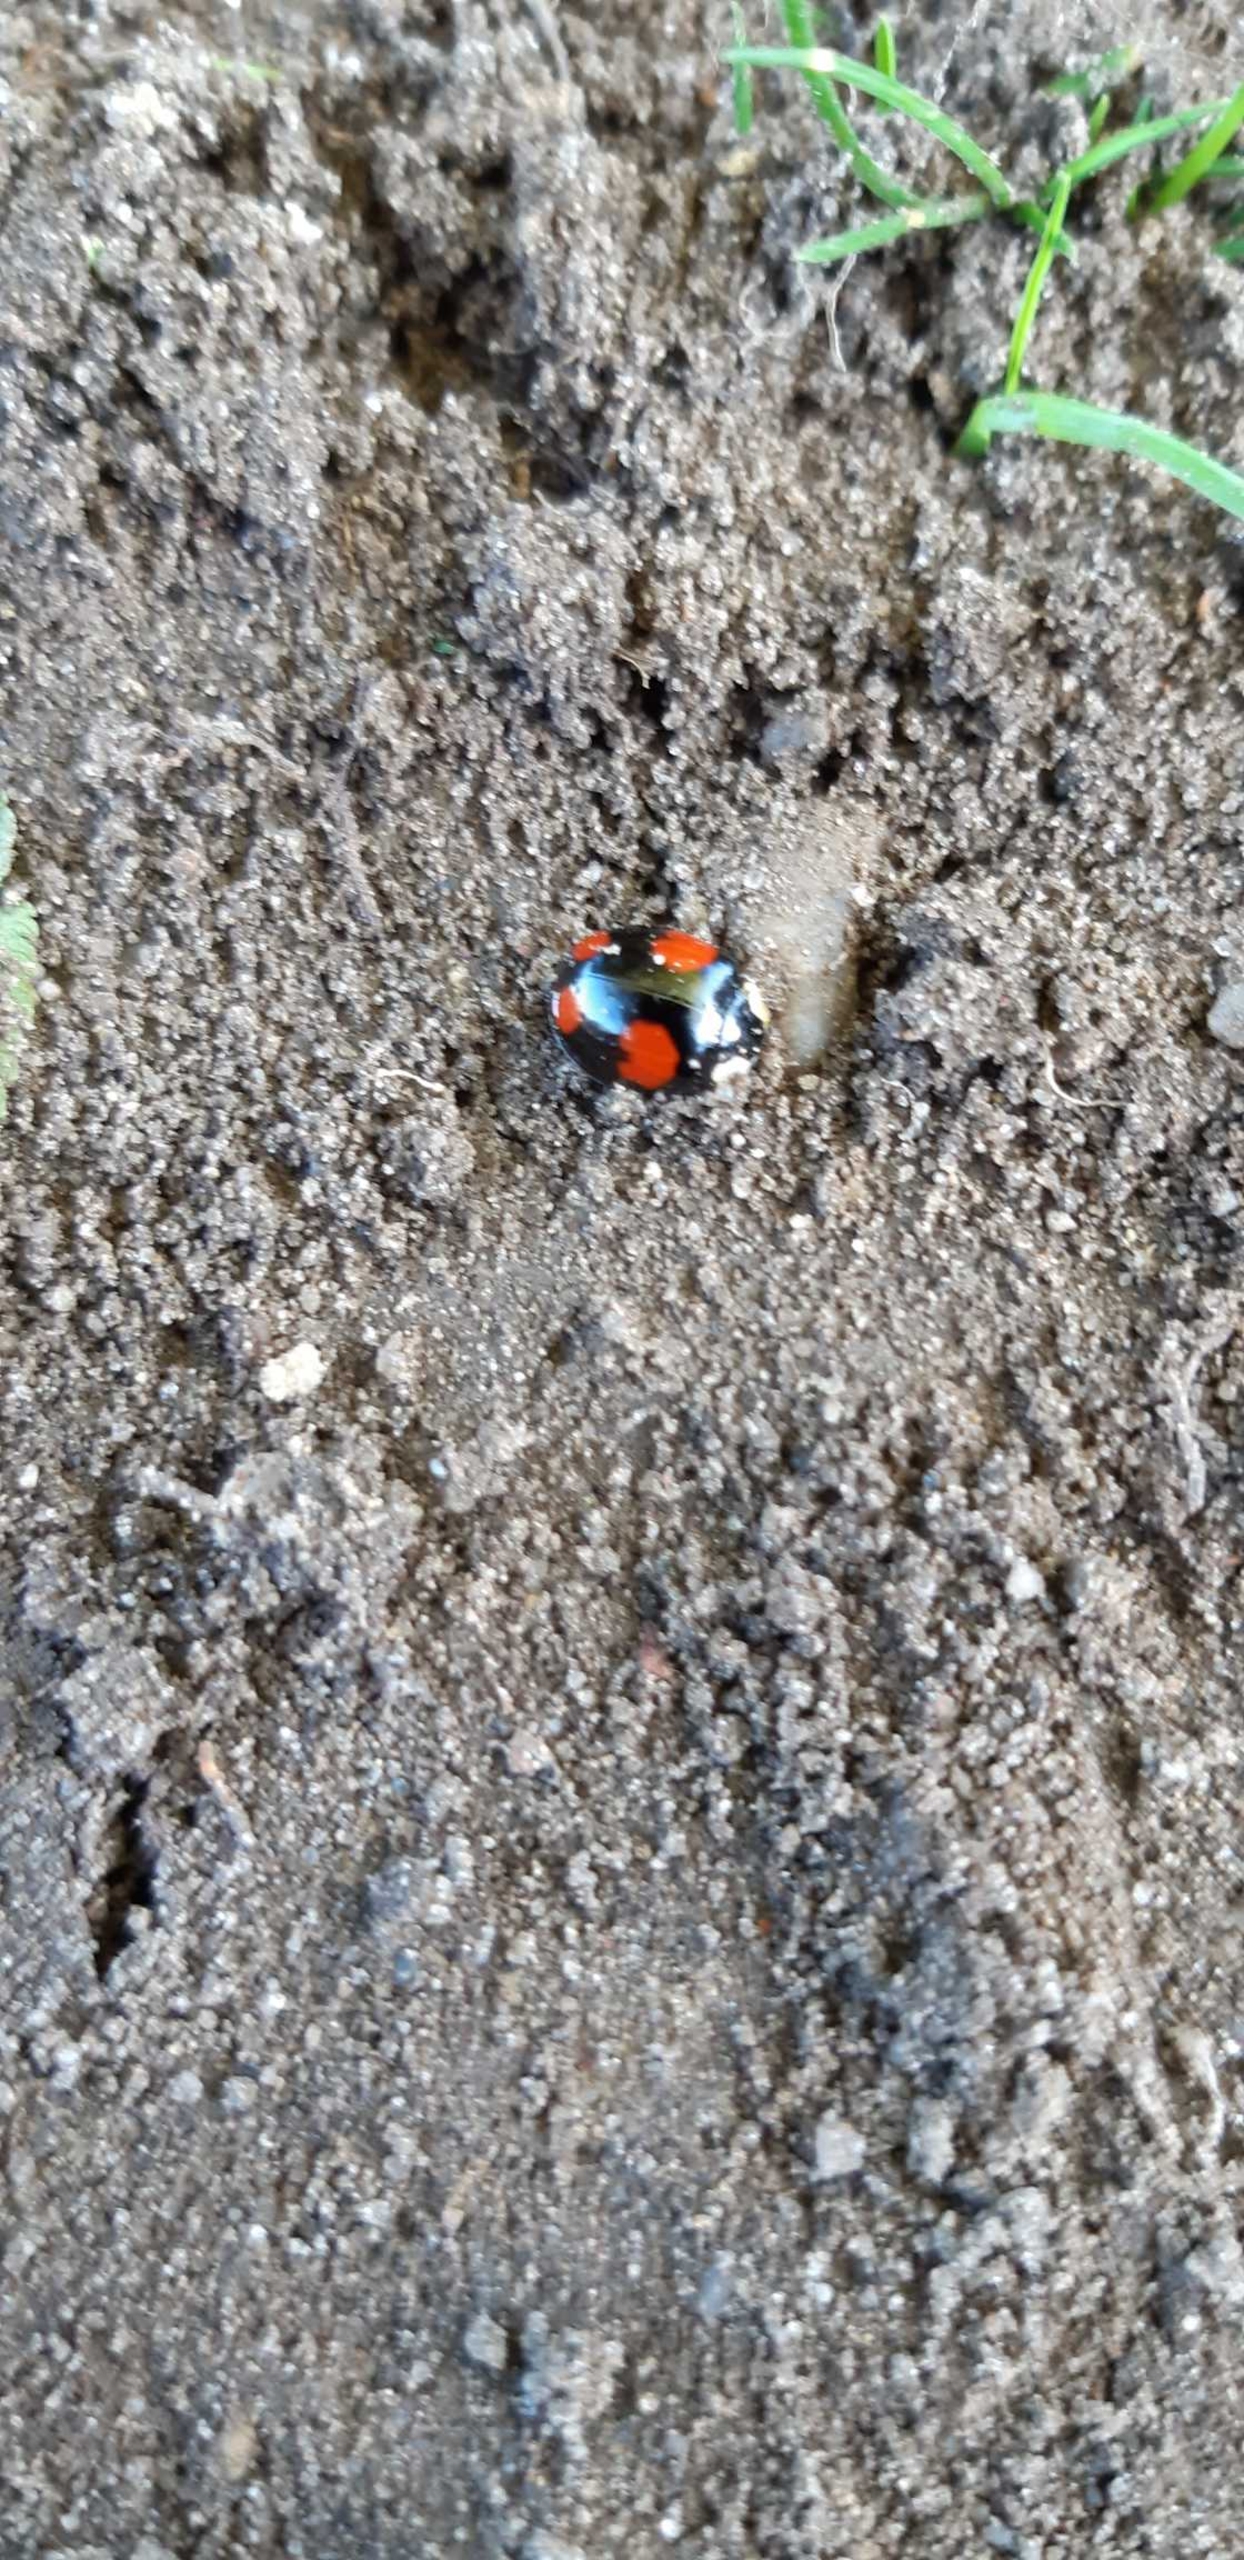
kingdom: Animalia
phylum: Arthropoda
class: Insecta
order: Coleoptera
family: Coccinellidae
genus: Harmonia
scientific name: Harmonia axyridis
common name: Harlekinmariehøne
